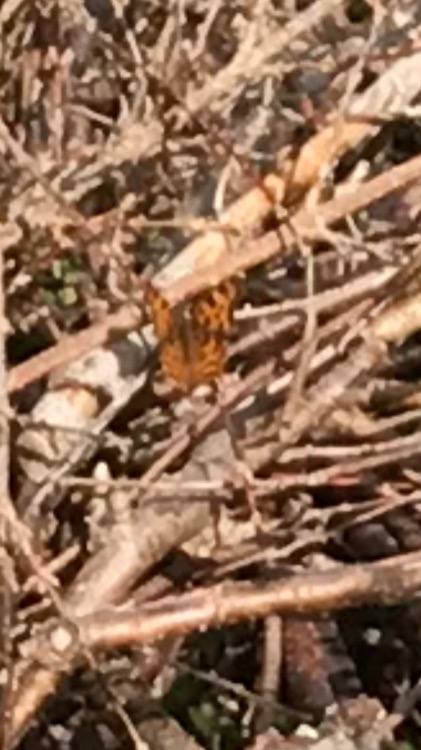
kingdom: Animalia
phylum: Arthropoda
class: Insecta
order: Lepidoptera
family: Nymphalidae
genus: Polygonia
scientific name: Polygonia c-album
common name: Det hvide C
